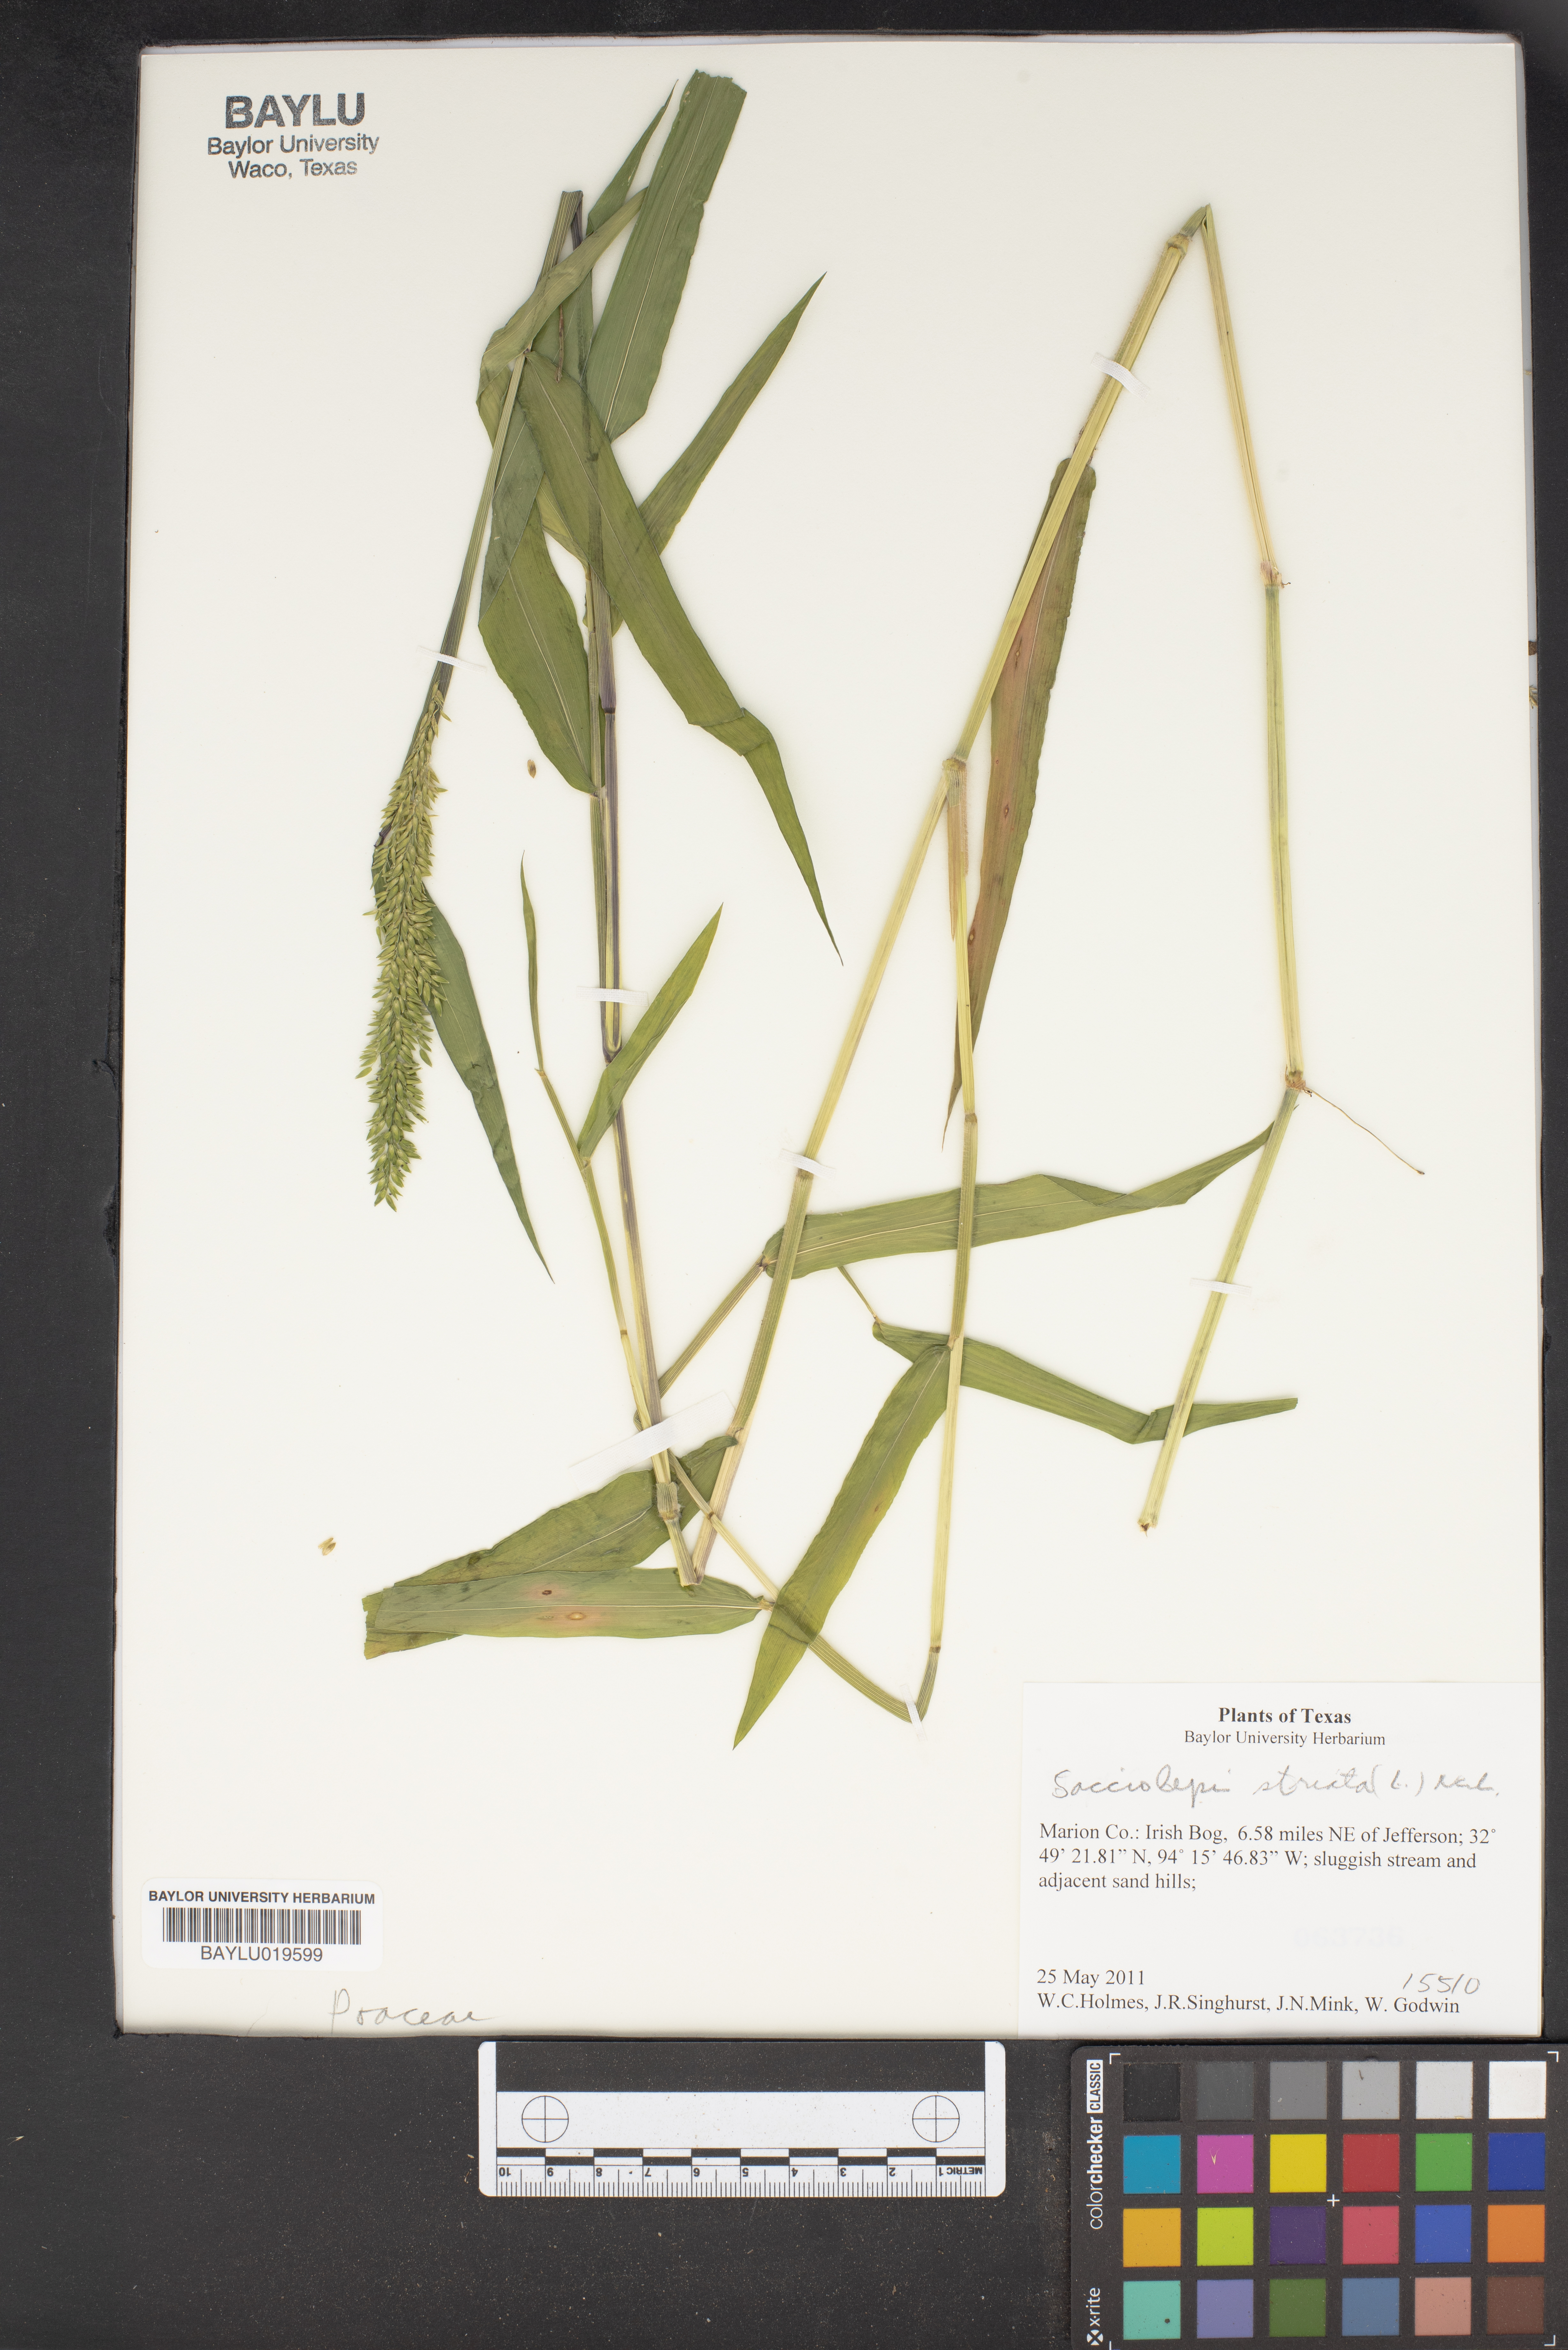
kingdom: Plantae
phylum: Tracheophyta
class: Liliopsida
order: Poales
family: Poaceae
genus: Sacciolepis
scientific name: Sacciolepis striata
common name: American cupscale
